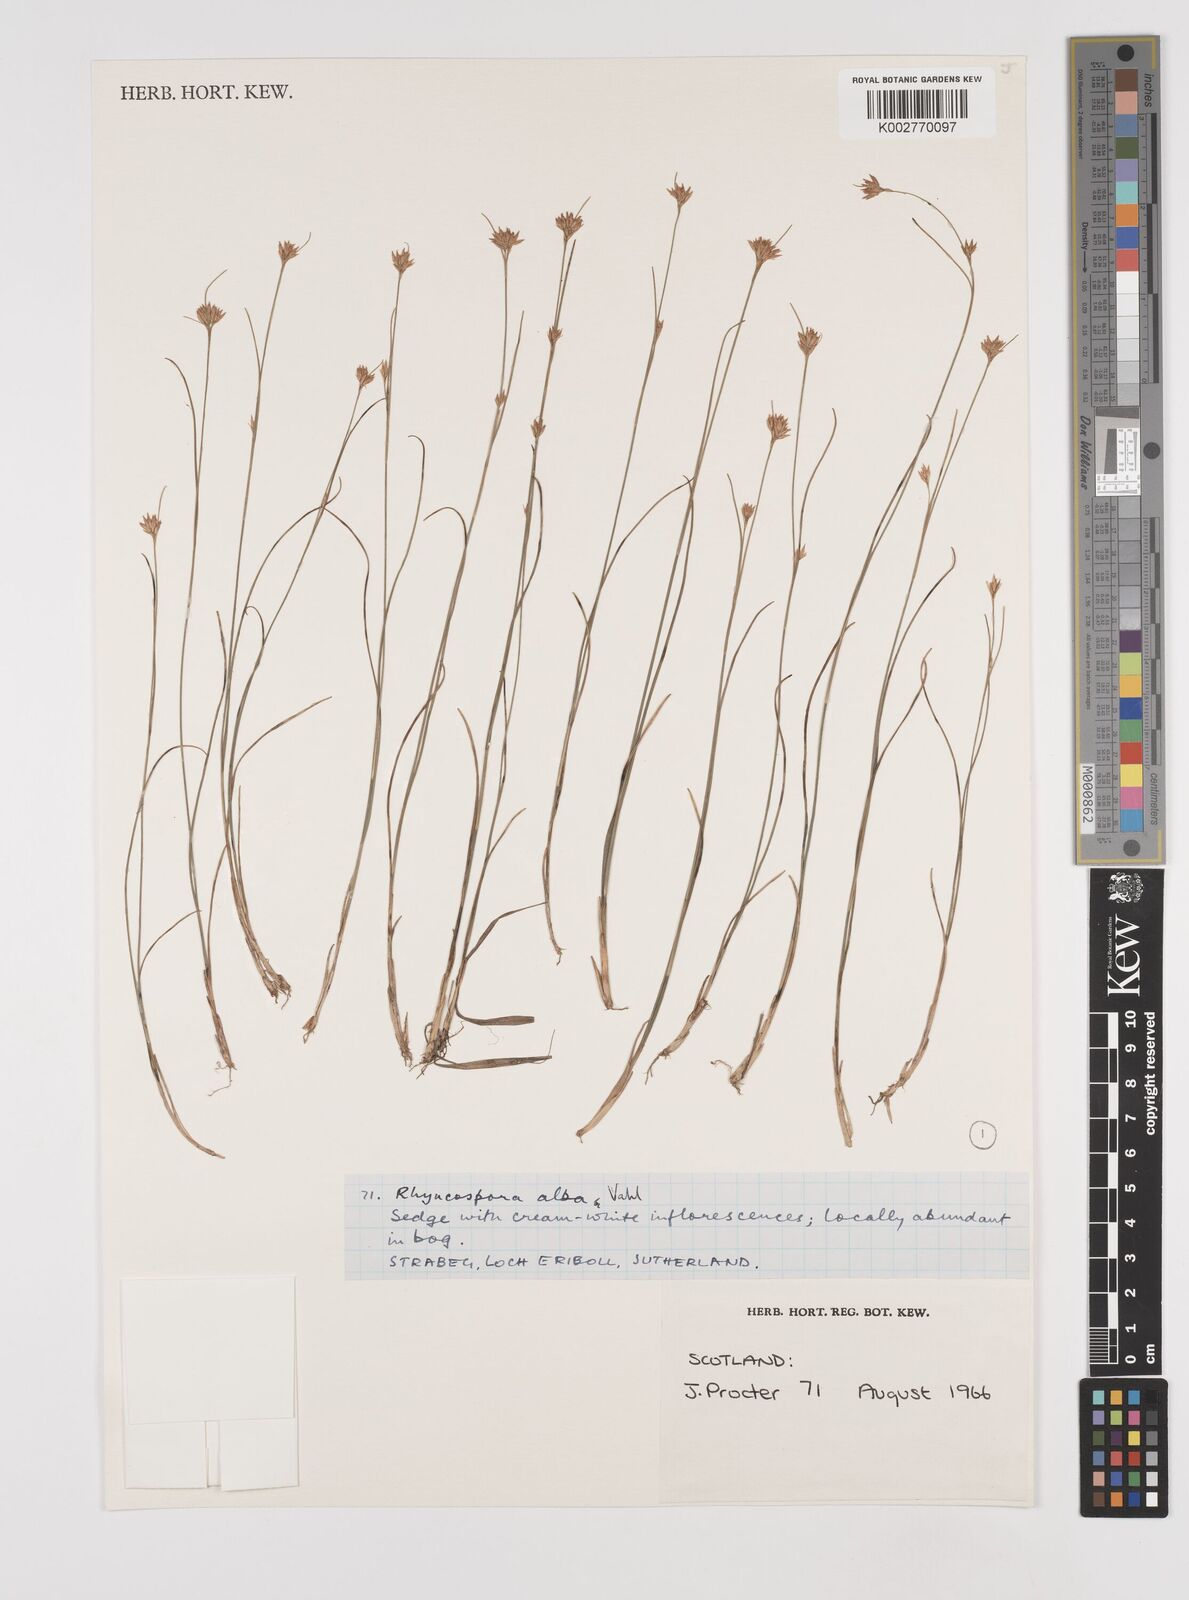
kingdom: Plantae
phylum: Tracheophyta
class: Liliopsida
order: Poales
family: Cyperaceae
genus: Rhynchospora
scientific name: Rhynchospora alba
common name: White beak-sedge
